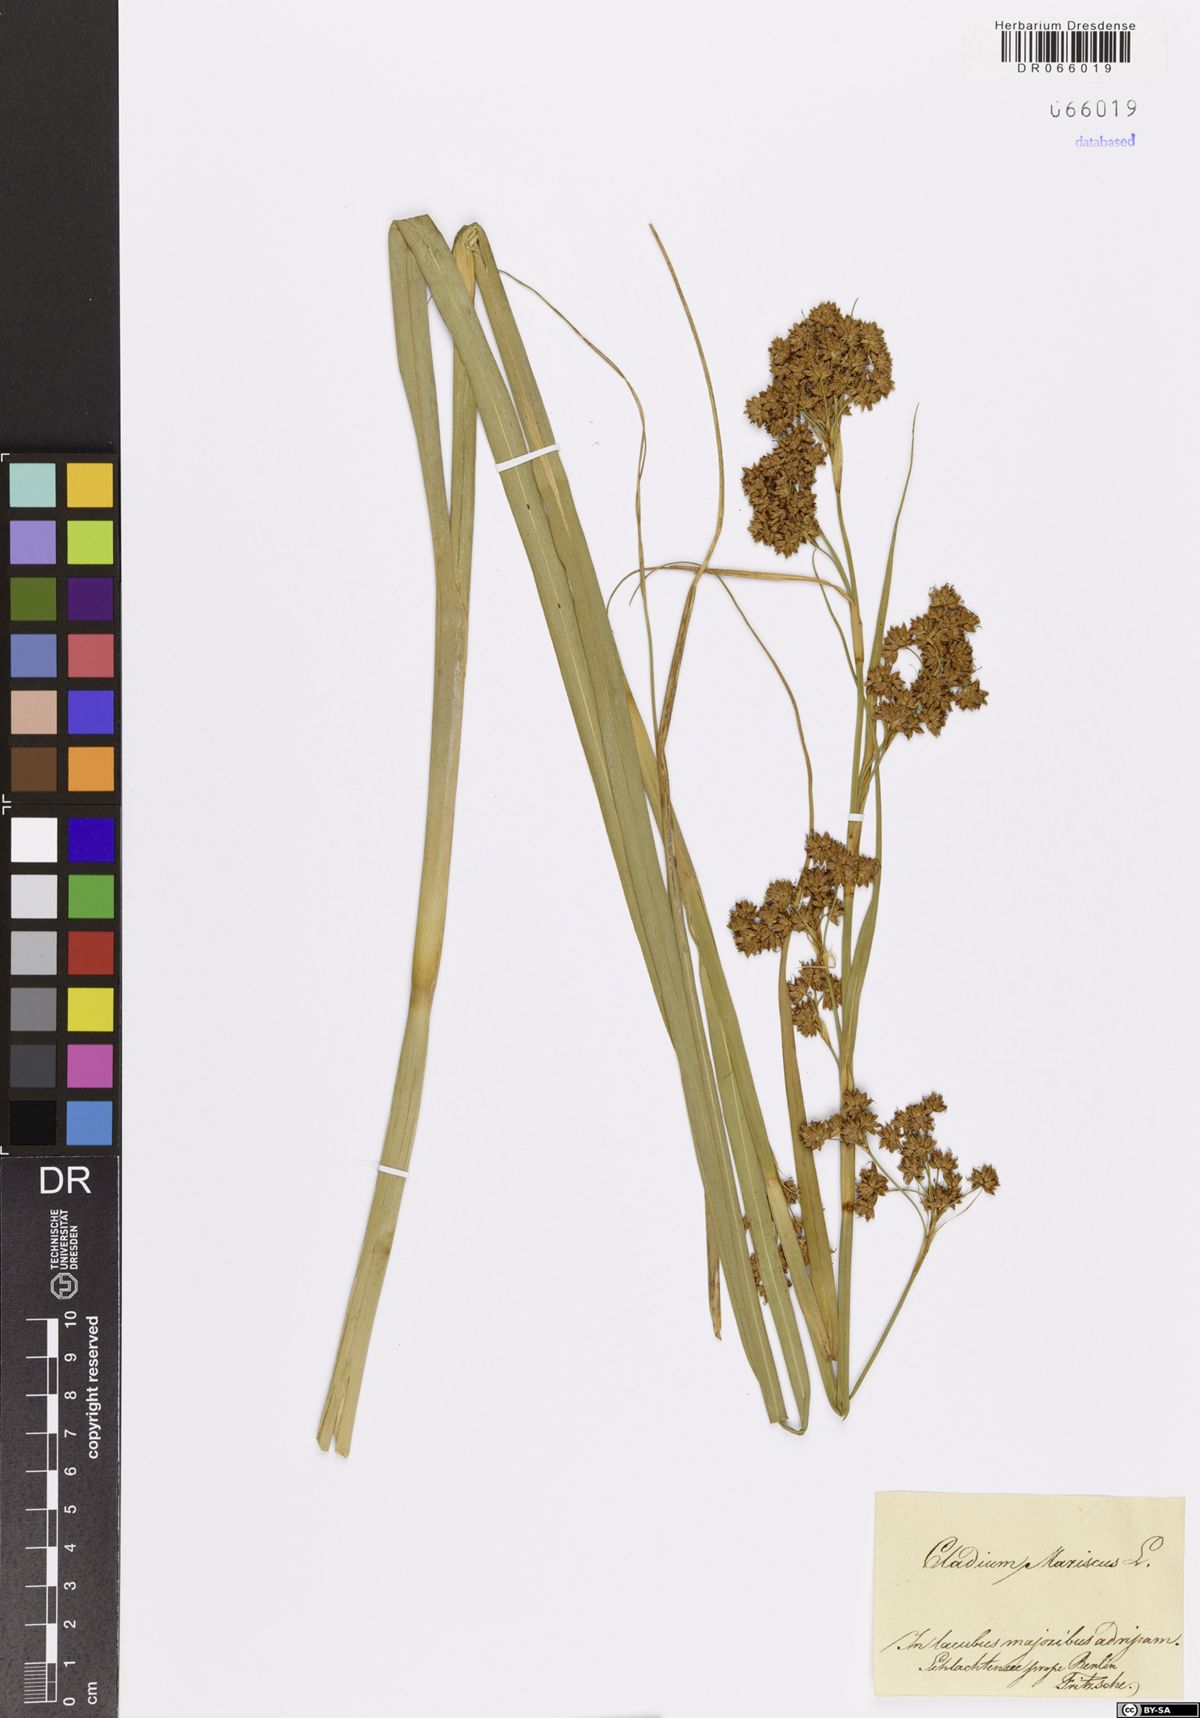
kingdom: Plantae
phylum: Tracheophyta
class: Liliopsida
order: Poales
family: Cyperaceae
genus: Cladium
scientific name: Cladium mariscus
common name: Great fen-sedge
